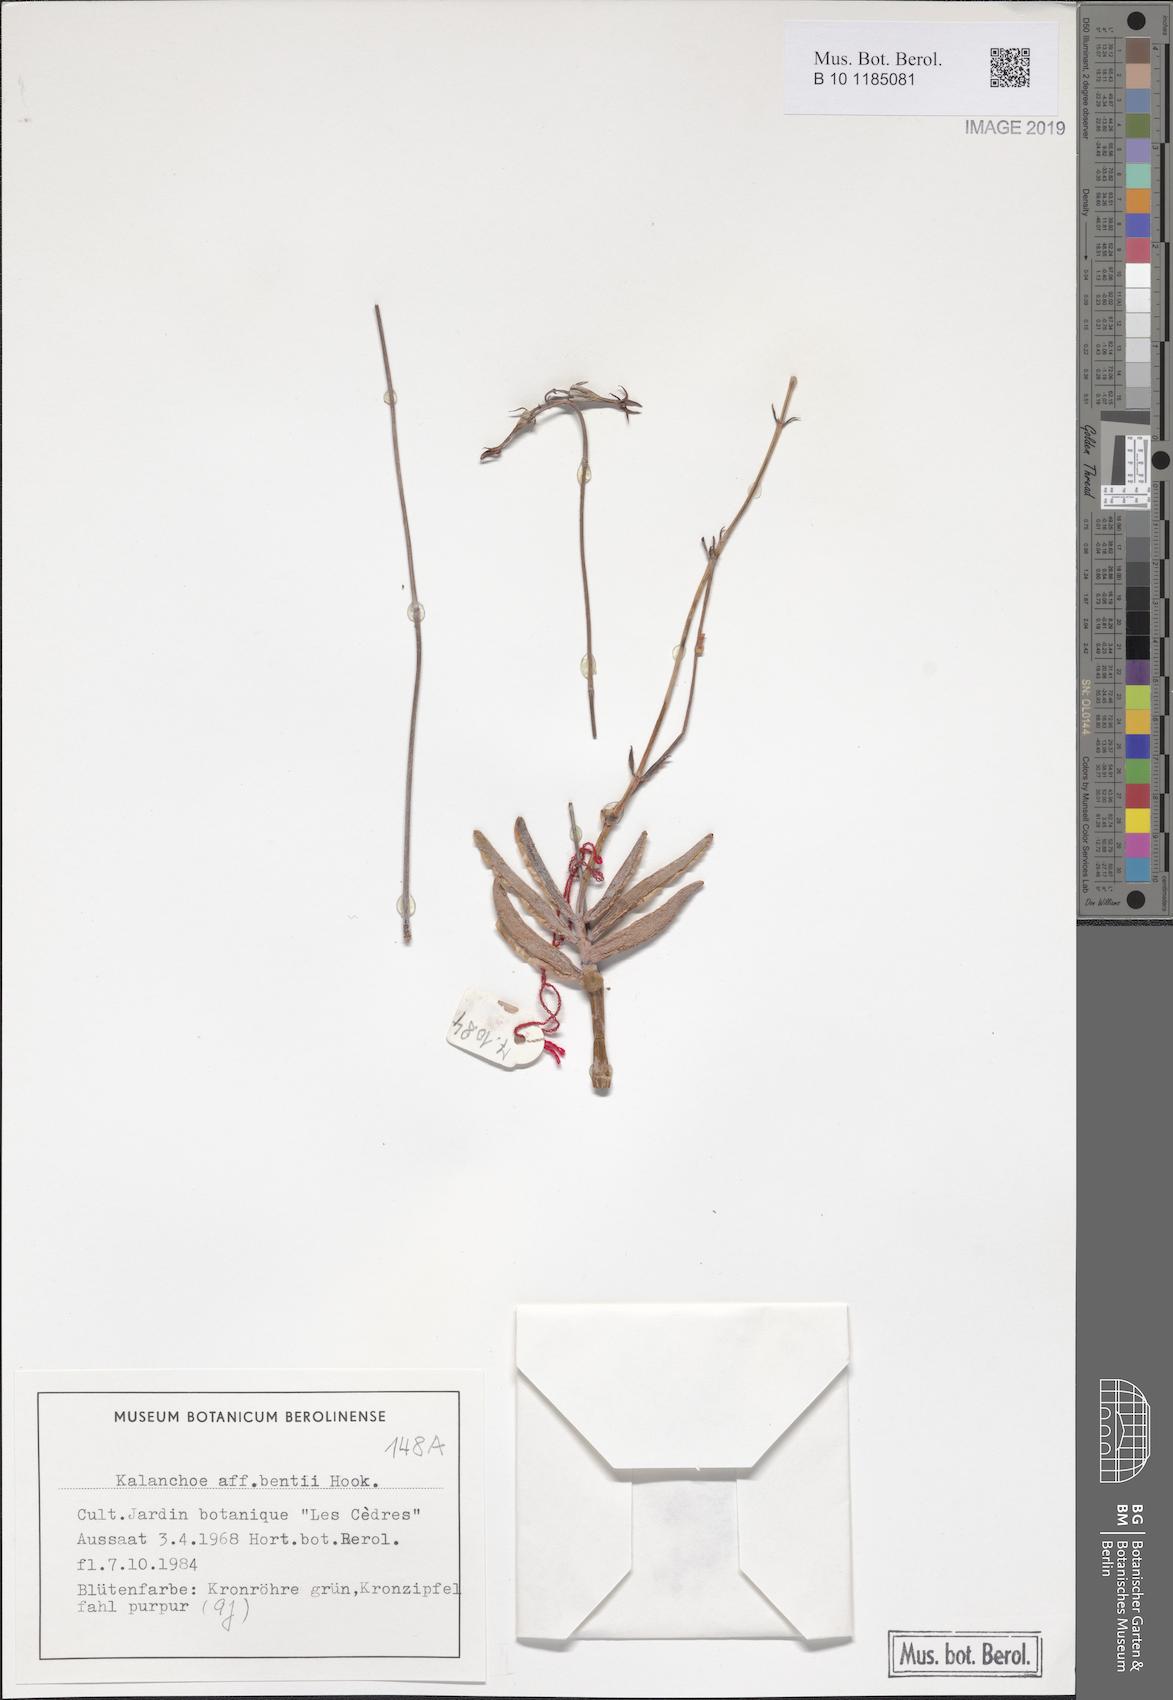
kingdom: Plantae
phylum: Tracheophyta
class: Magnoliopsida
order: Saxifragales
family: Crassulaceae
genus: Kalanchoe
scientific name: Kalanchoe bentii
